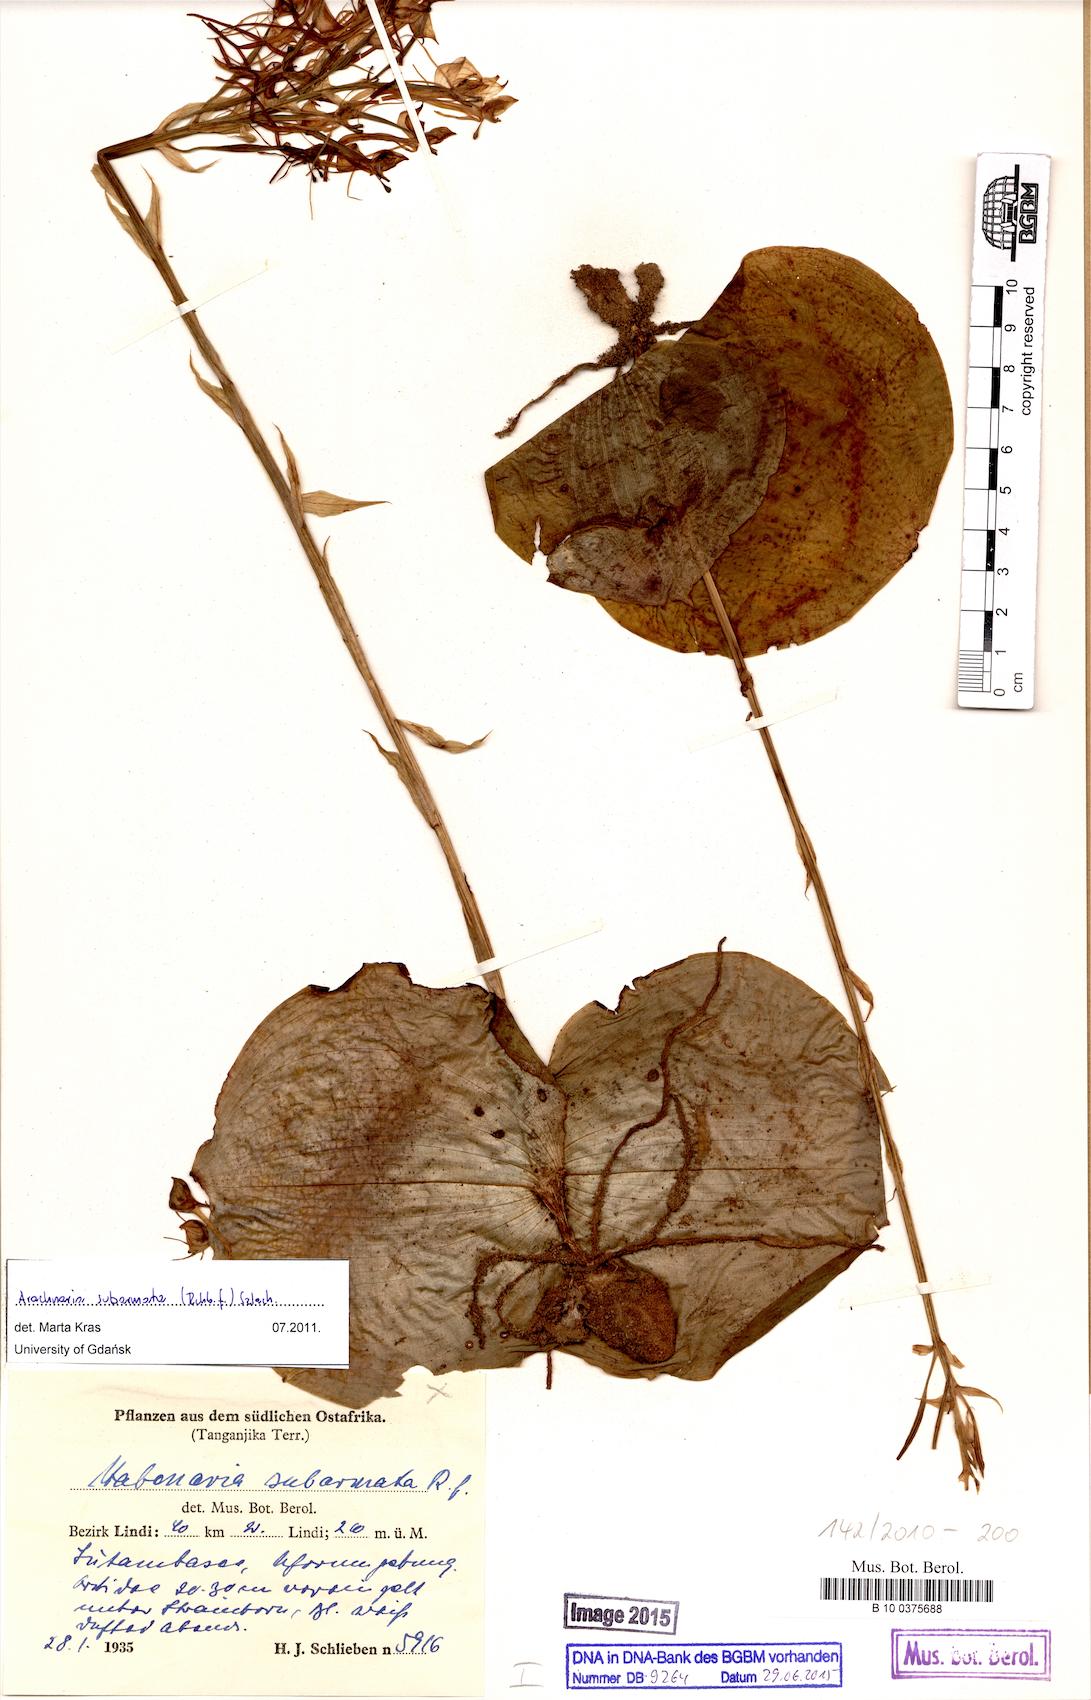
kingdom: Plantae
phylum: Tracheophyta
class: Liliopsida
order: Asparagales
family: Orchidaceae
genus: Habenaria
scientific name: Habenaria subarmata
